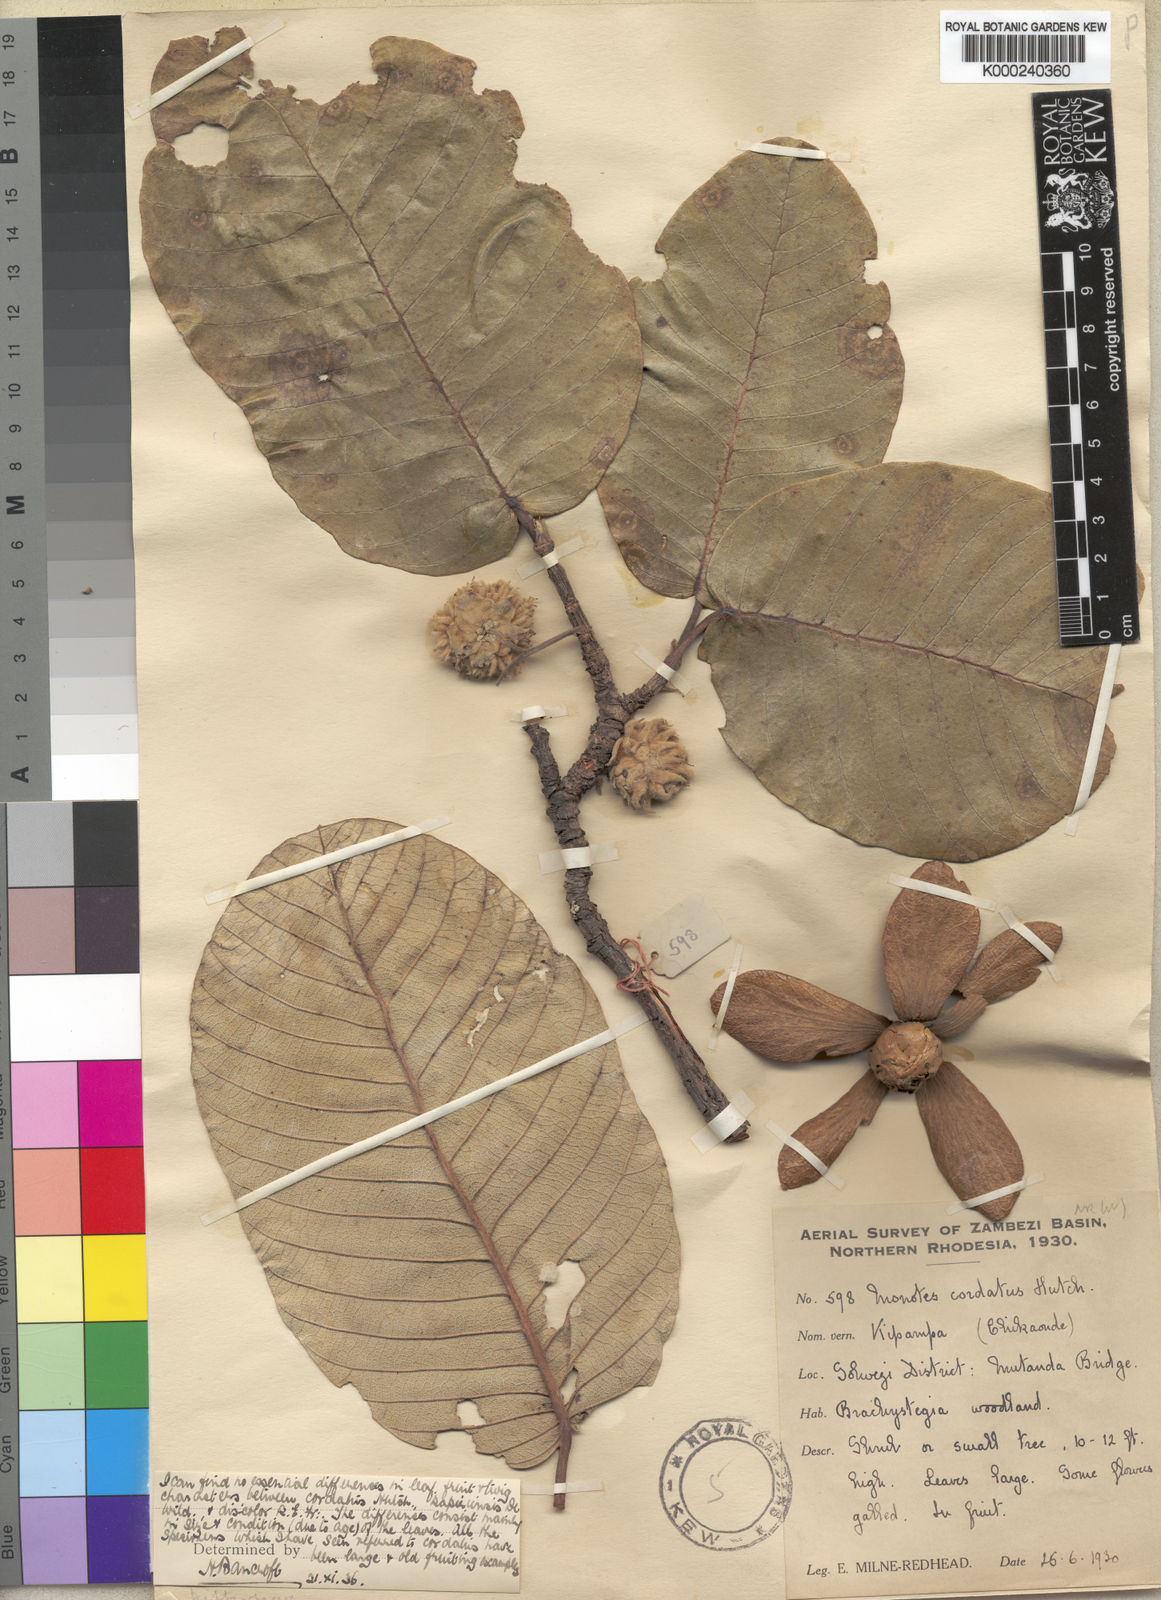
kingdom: Plantae
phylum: Tracheophyta
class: Magnoliopsida
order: Malvales
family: Dipterocarpaceae
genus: Monotes
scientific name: Monotes hypoleucus
